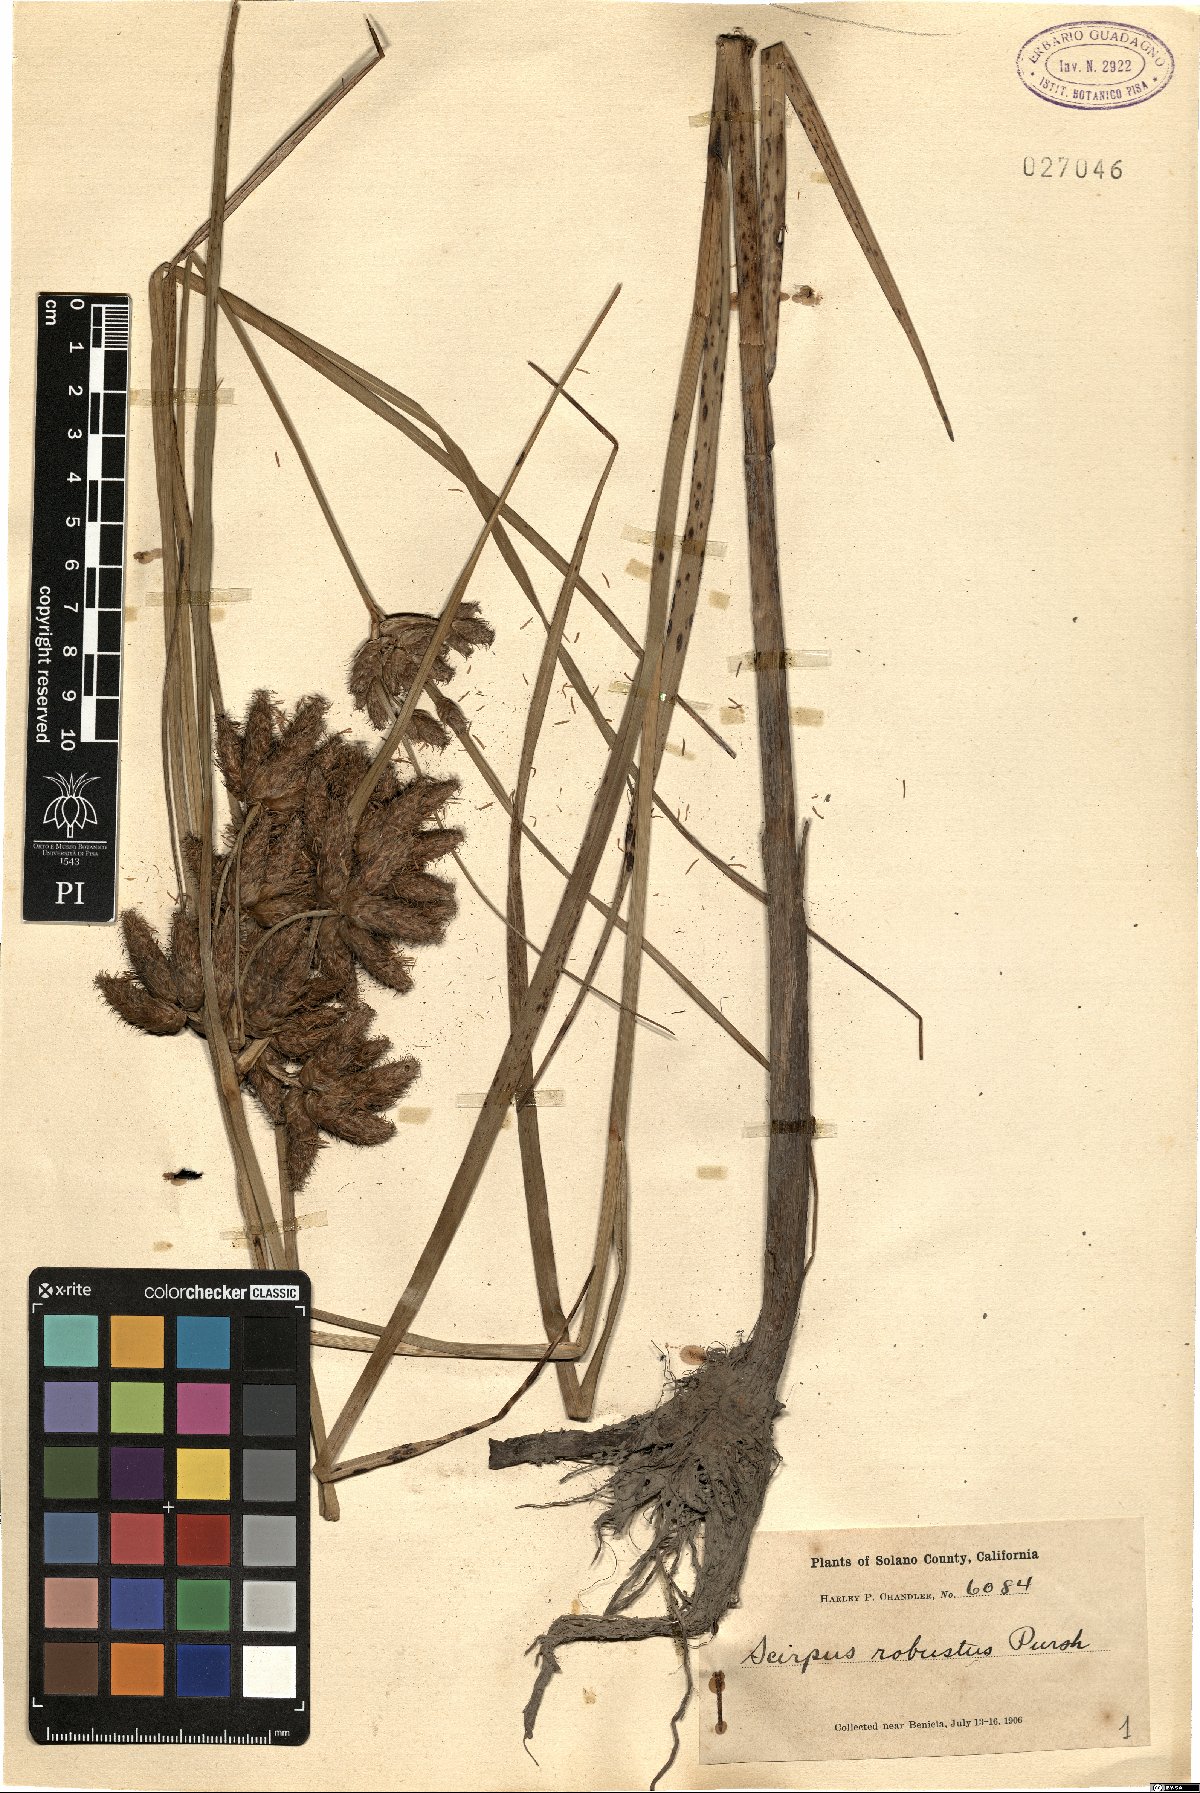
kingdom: Plantae
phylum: Tracheophyta
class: Liliopsida
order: Poales
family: Cyperaceae
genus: Bolboschoenus
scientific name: Bolboschoenus robustus
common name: Seacoast bulrush
